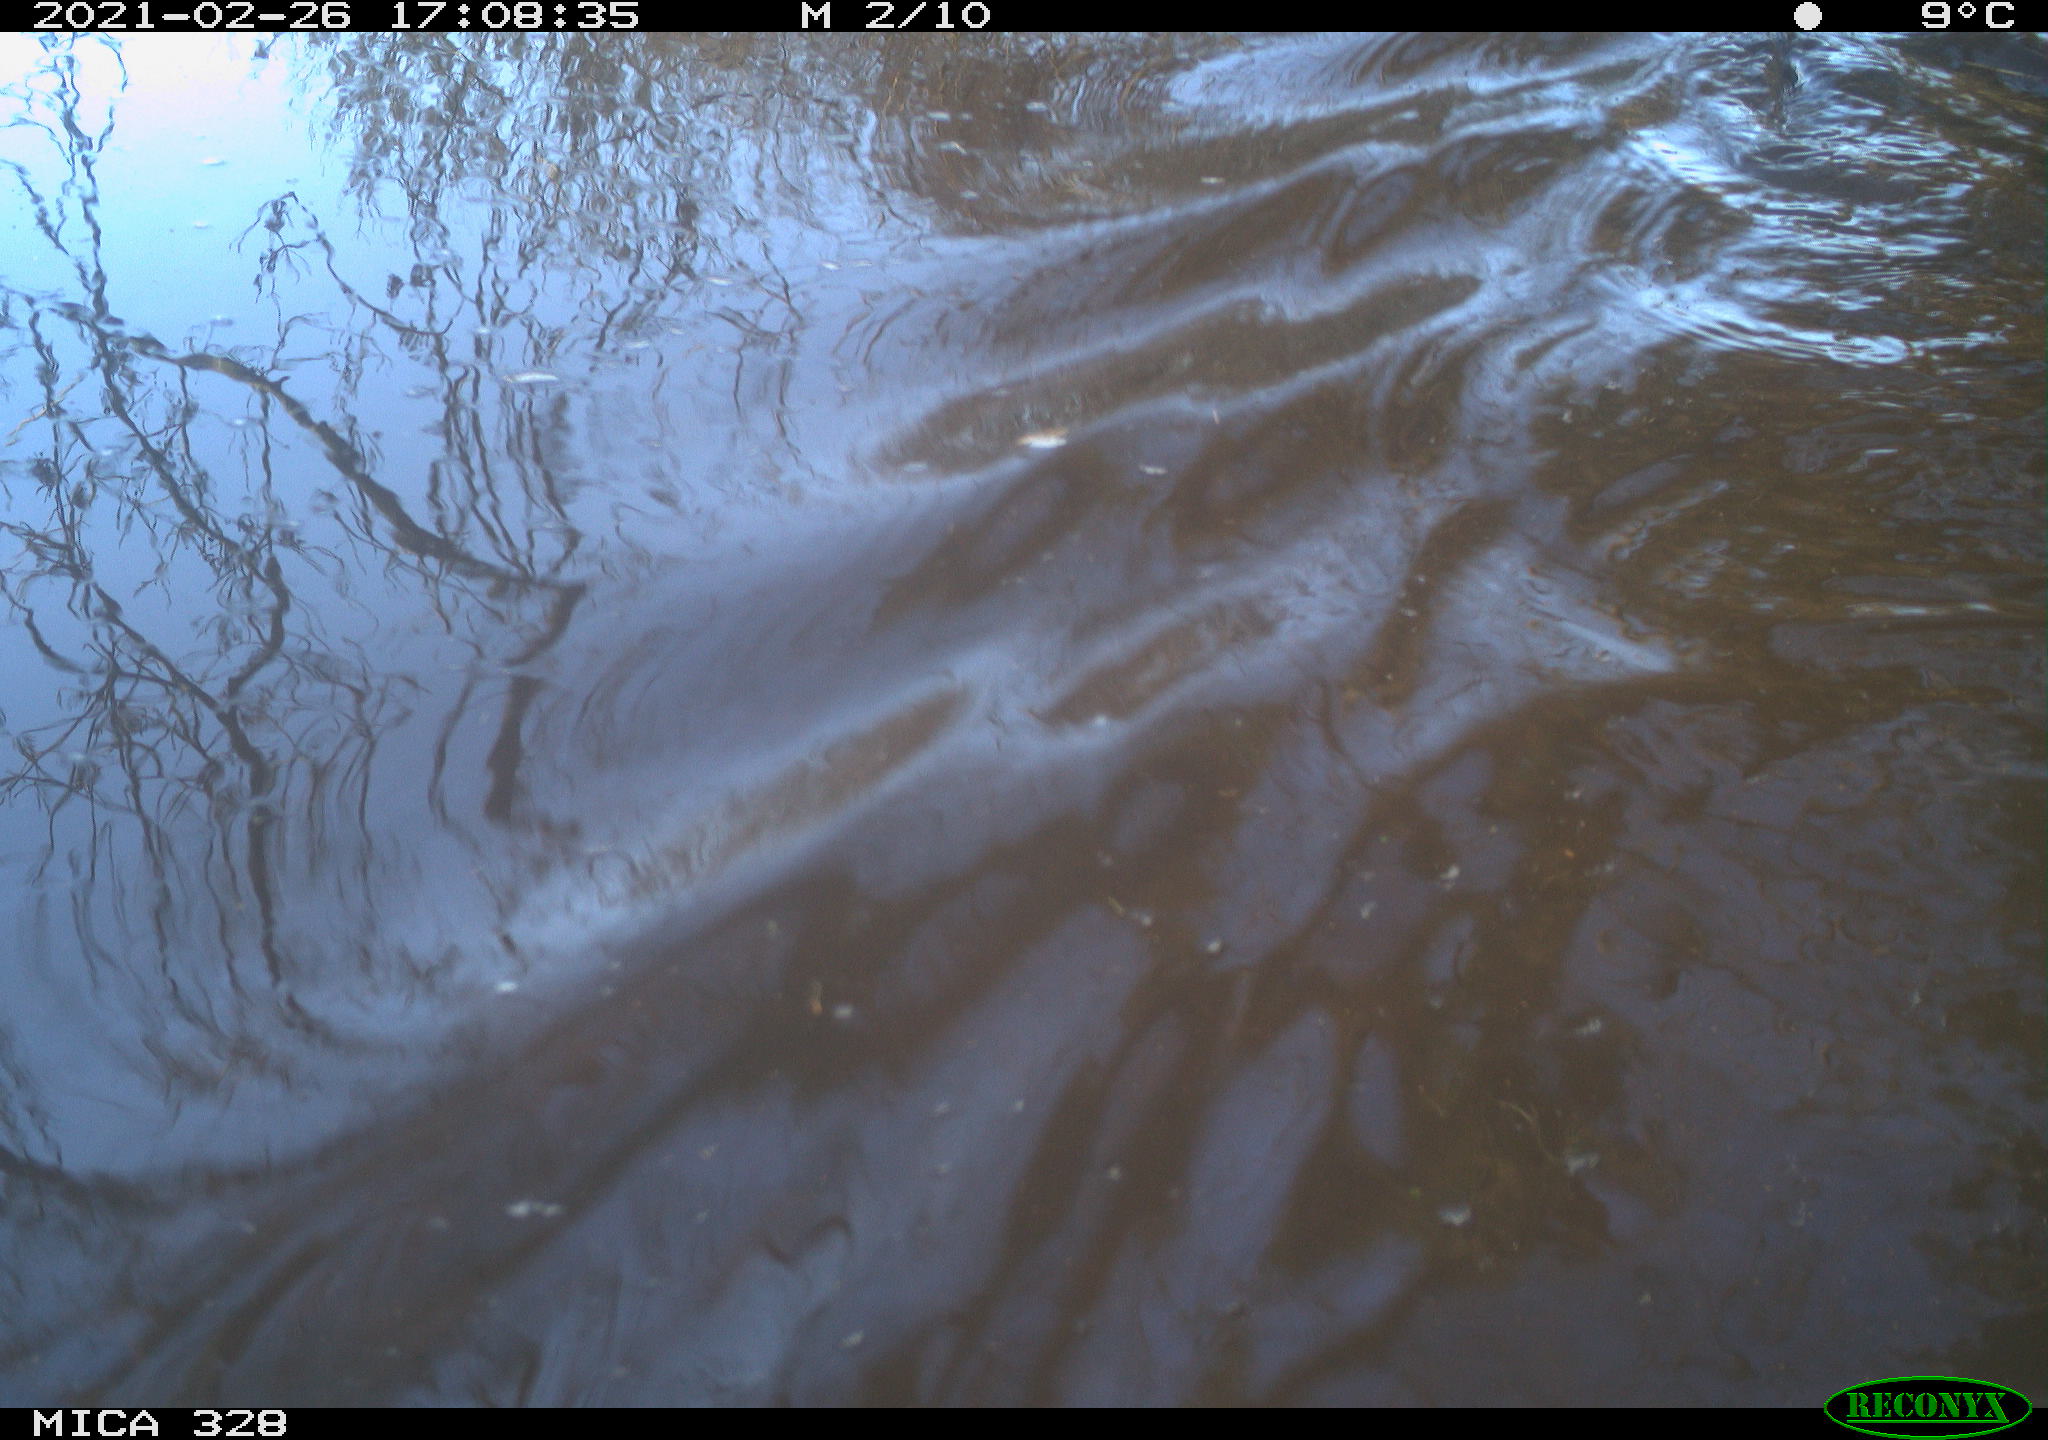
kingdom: Animalia
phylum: Chordata
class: Mammalia
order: Rodentia
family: Myocastoridae
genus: Myocastor
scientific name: Myocastor coypus
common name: Coypu
